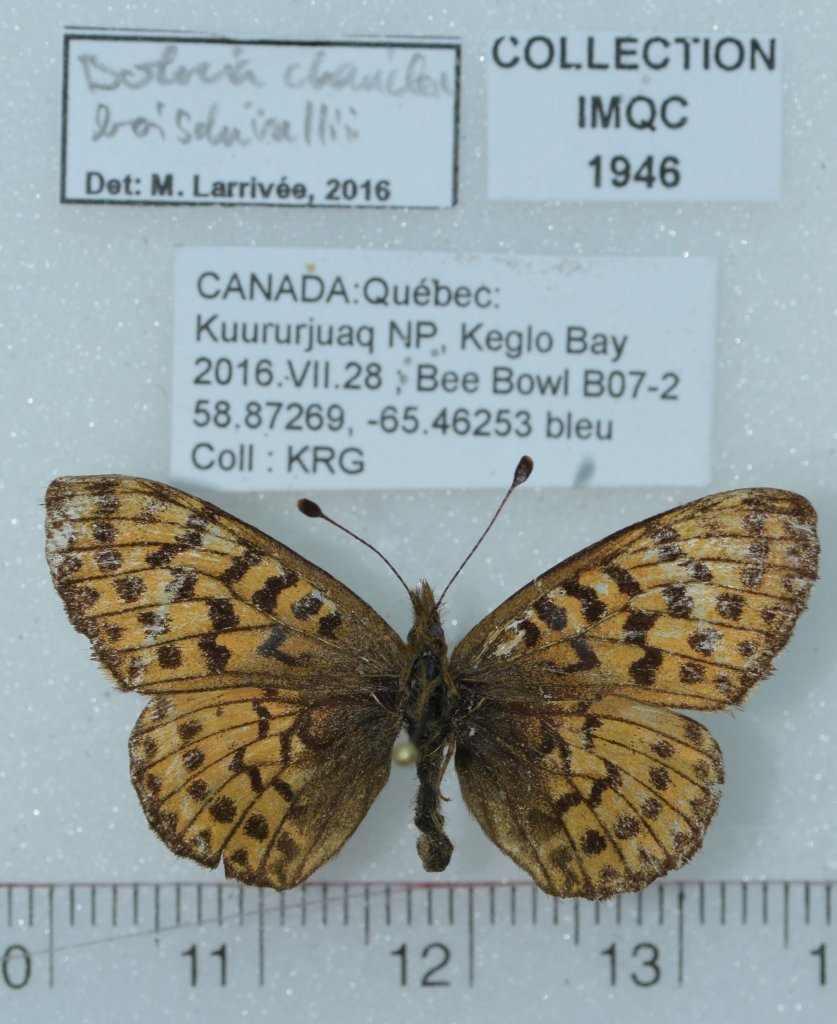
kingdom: Animalia
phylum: Arthropoda
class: Insecta
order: Lepidoptera
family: Nymphalidae
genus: Boloria
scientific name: Boloria chariclea
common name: Arctic Fritillary
